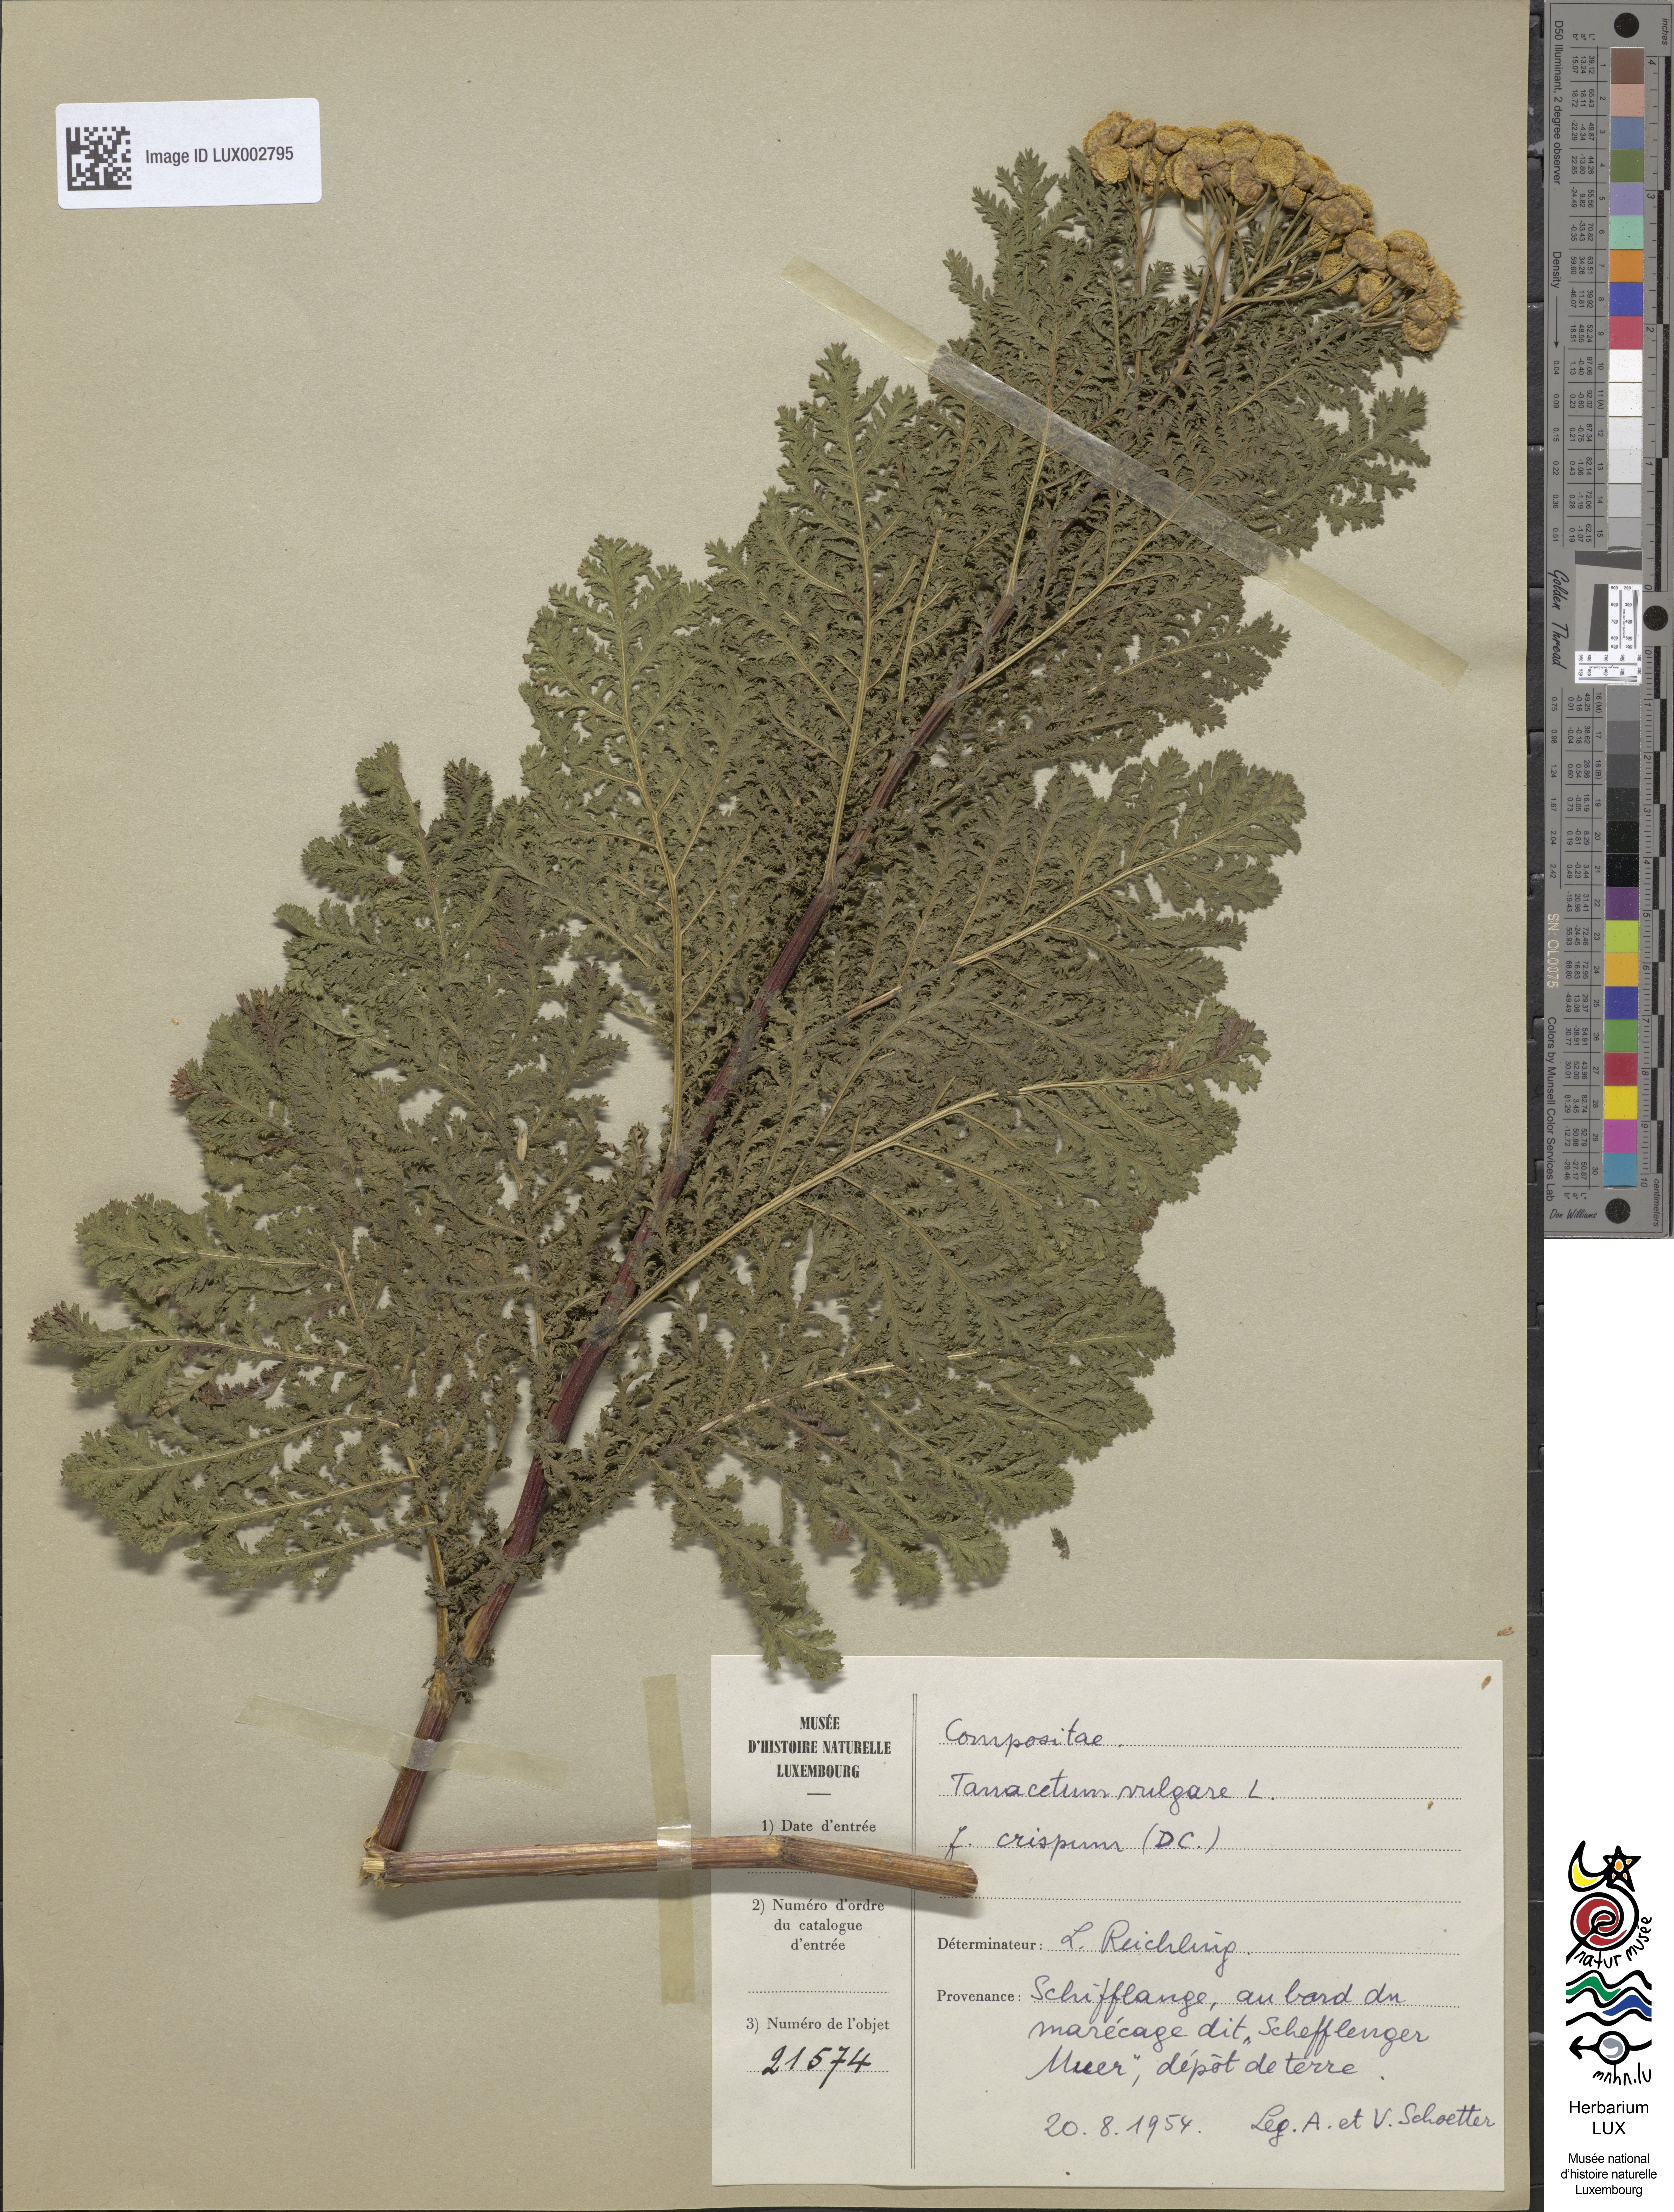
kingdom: Plantae
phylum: Tracheophyta
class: Magnoliopsida
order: Asterales
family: Asteraceae
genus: Tanacetum
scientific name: Tanacetum vulgare
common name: Common tansy
